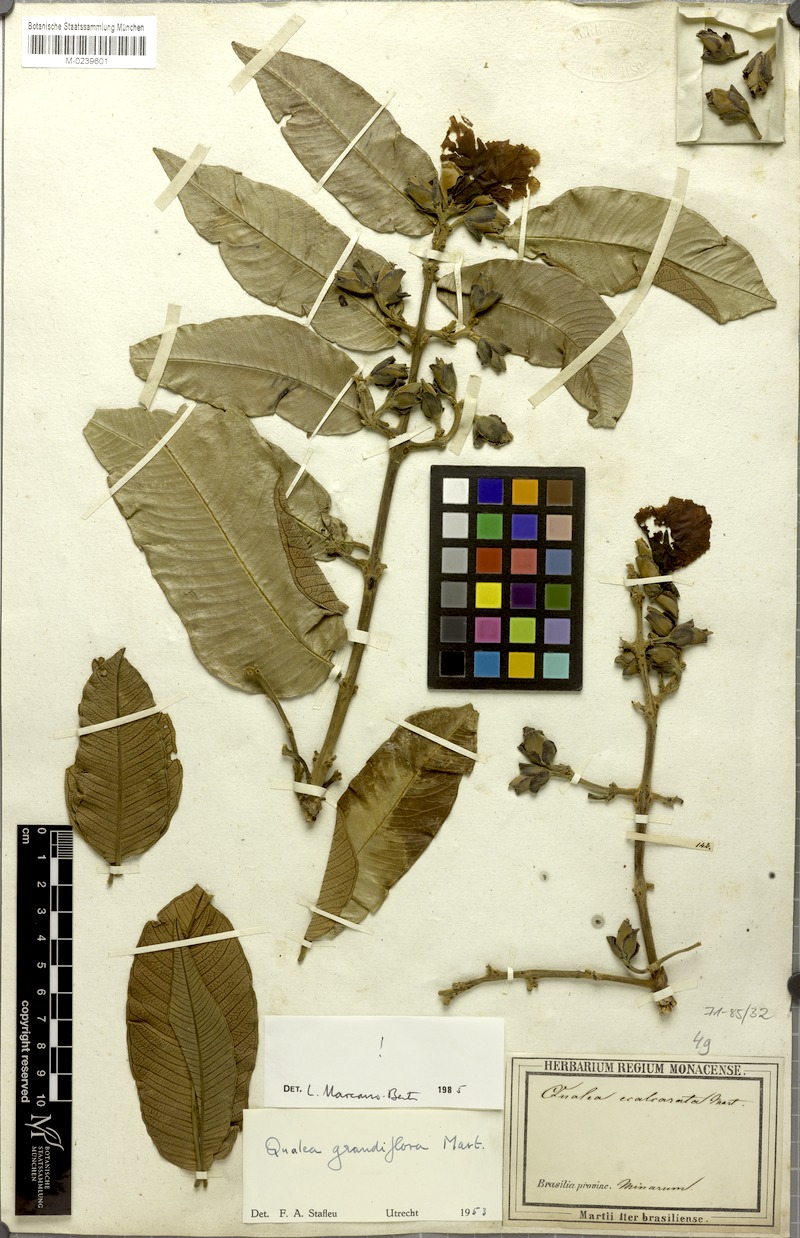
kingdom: Plantae
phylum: Tracheophyta
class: Magnoliopsida
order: Myrtales
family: Vochysiaceae
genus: Qualea
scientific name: Qualea grandiflora
